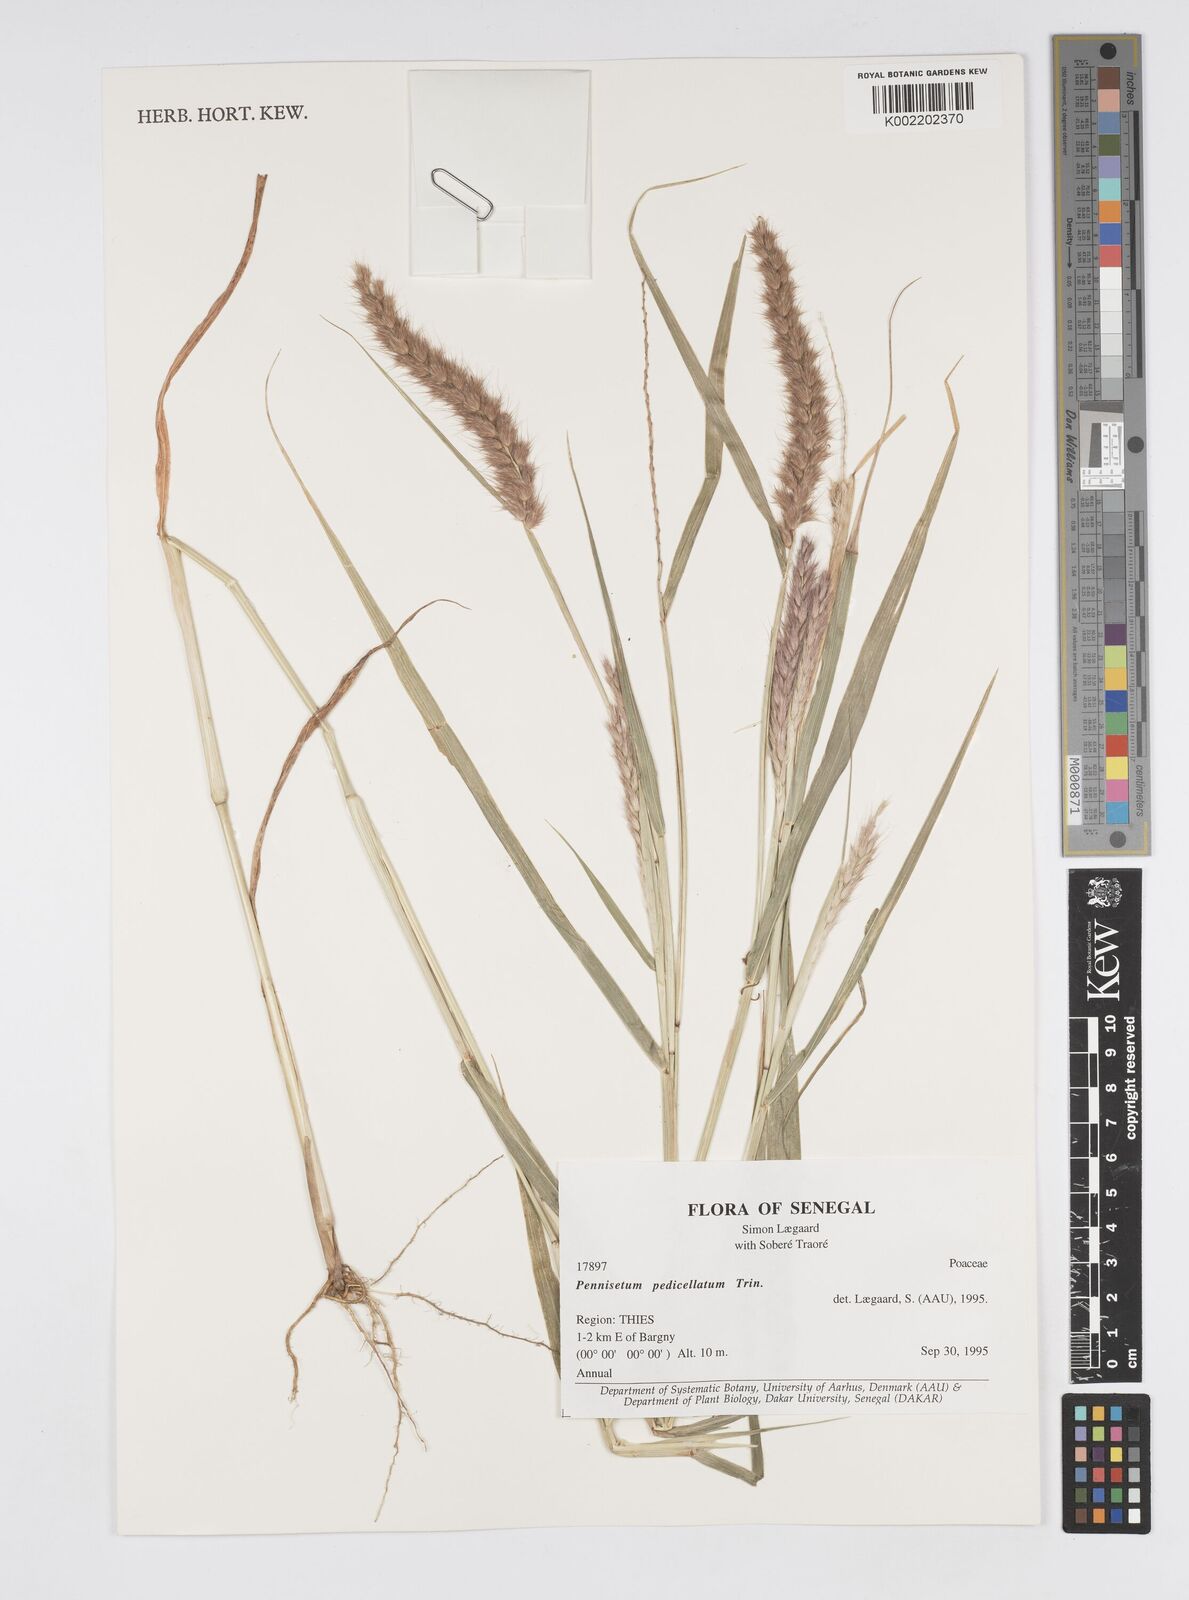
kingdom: Plantae
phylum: Tracheophyta
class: Liliopsida
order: Poales
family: Poaceae
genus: Cenchrus
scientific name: Cenchrus pedicellatus
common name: Hairy fountain grass
